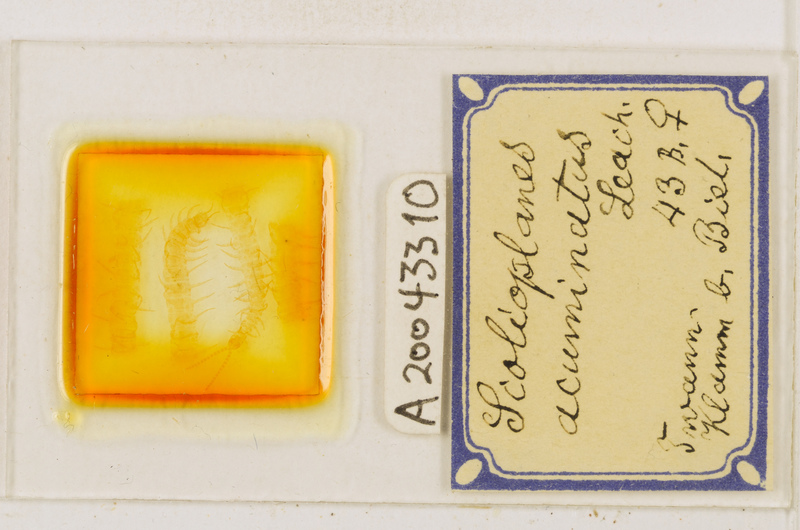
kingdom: Animalia
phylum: Arthropoda
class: Chilopoda
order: Geophilomorpha
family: Linotaeniidae
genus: Strigamia
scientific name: Strigamia acuminata
